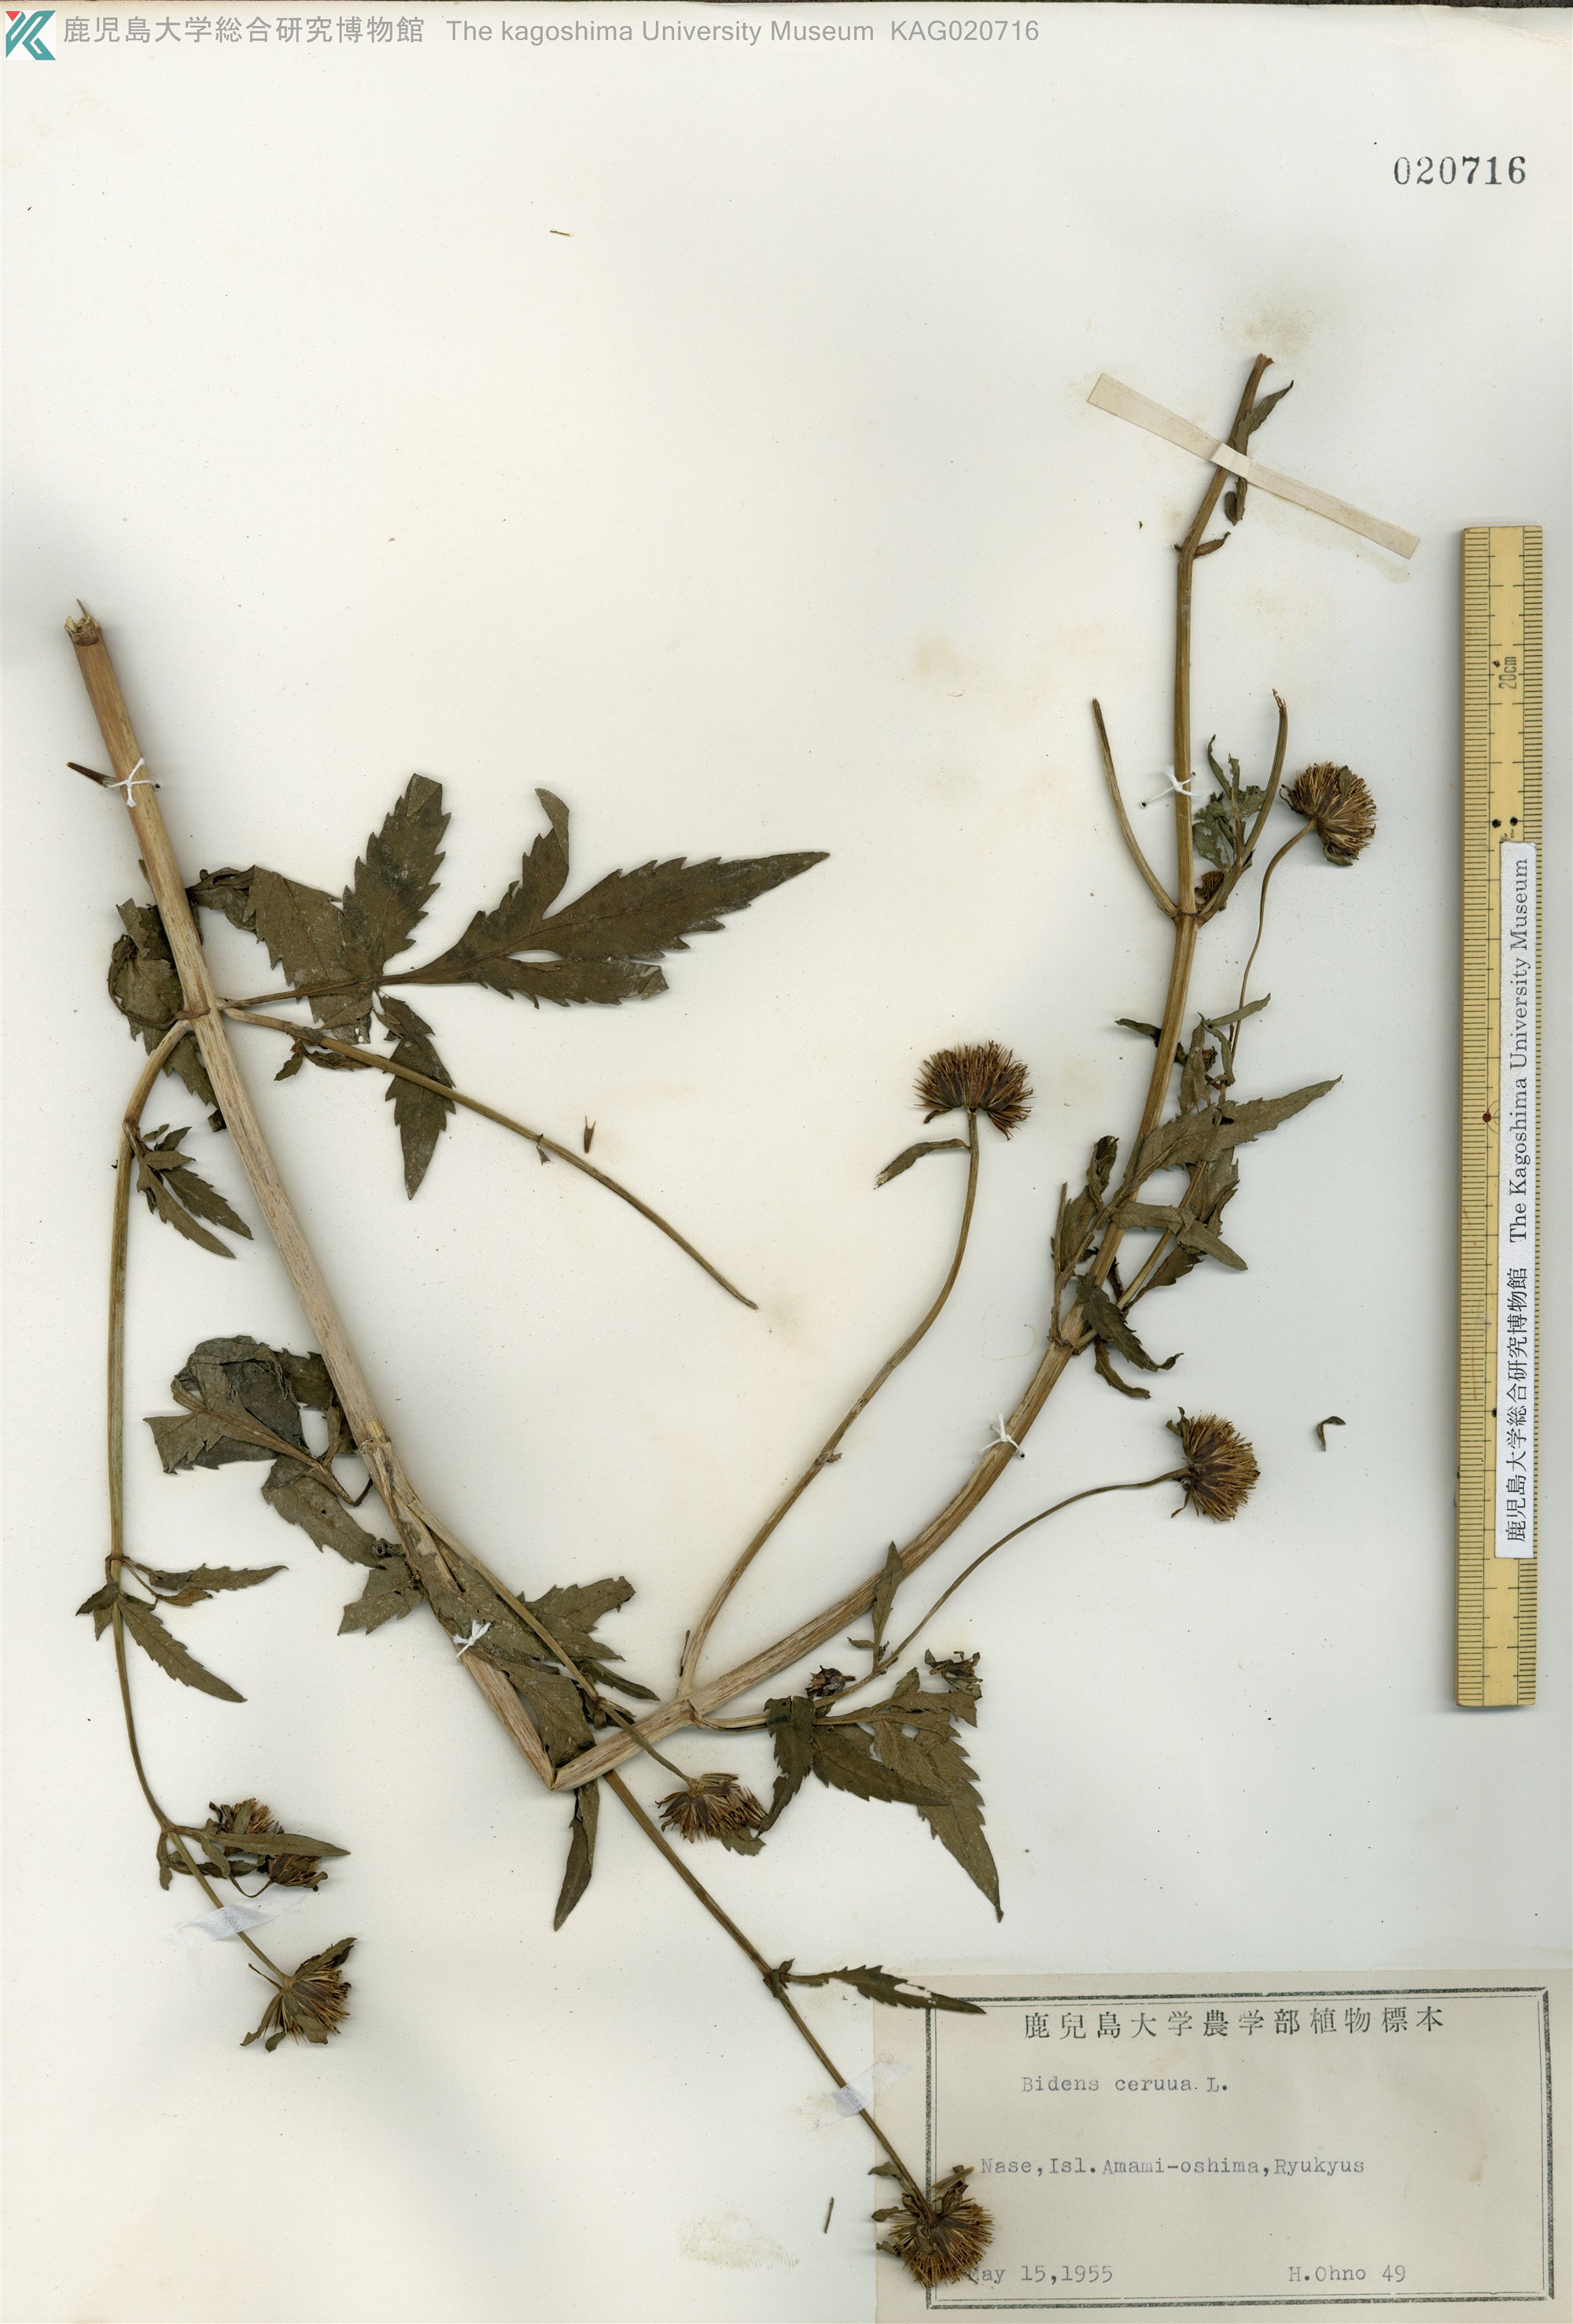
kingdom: Plantae
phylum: Tracheophyta
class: Magnoliopsida
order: Asterales
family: Asteraceae
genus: Bidens
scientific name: Bidens tripartita
